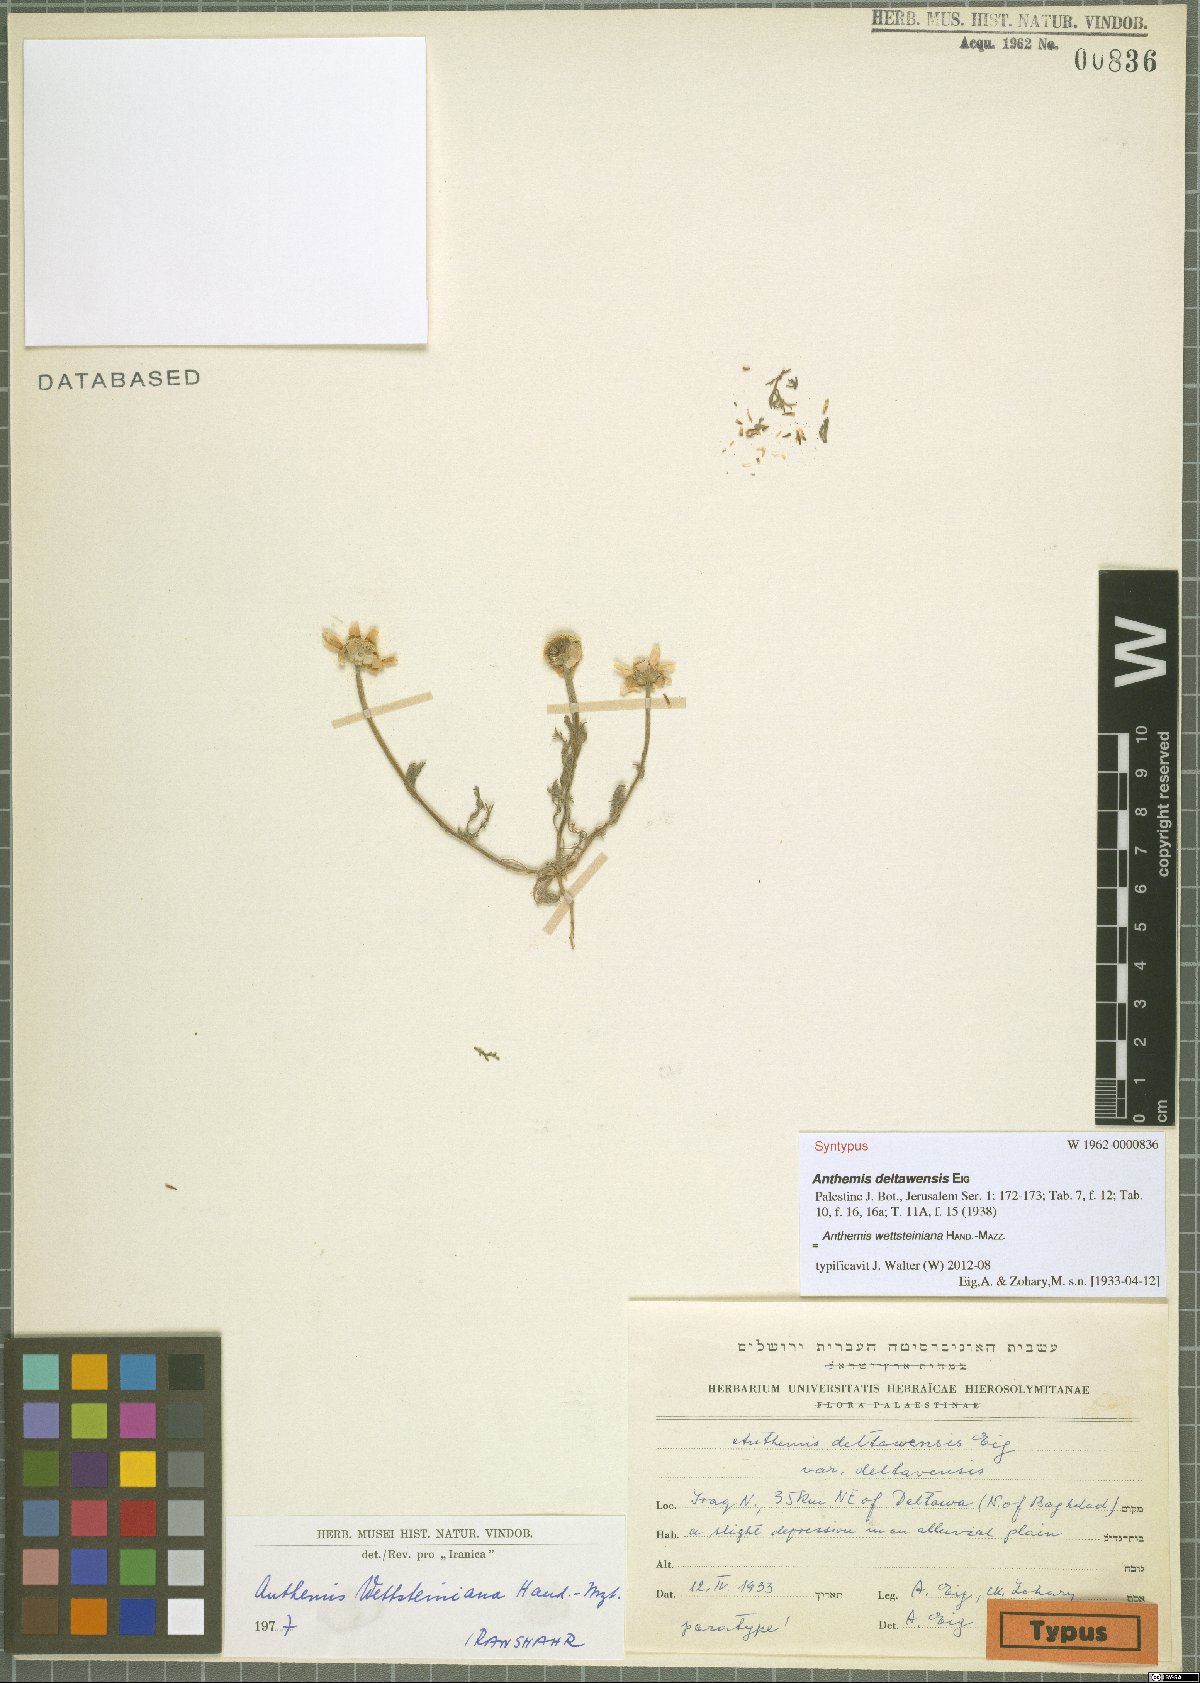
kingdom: Plantae
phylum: Tracheophyta
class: Magnoliopsida
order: Asterales
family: Asteraceae
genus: Anthemis
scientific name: Anthemis wettsteiniana
